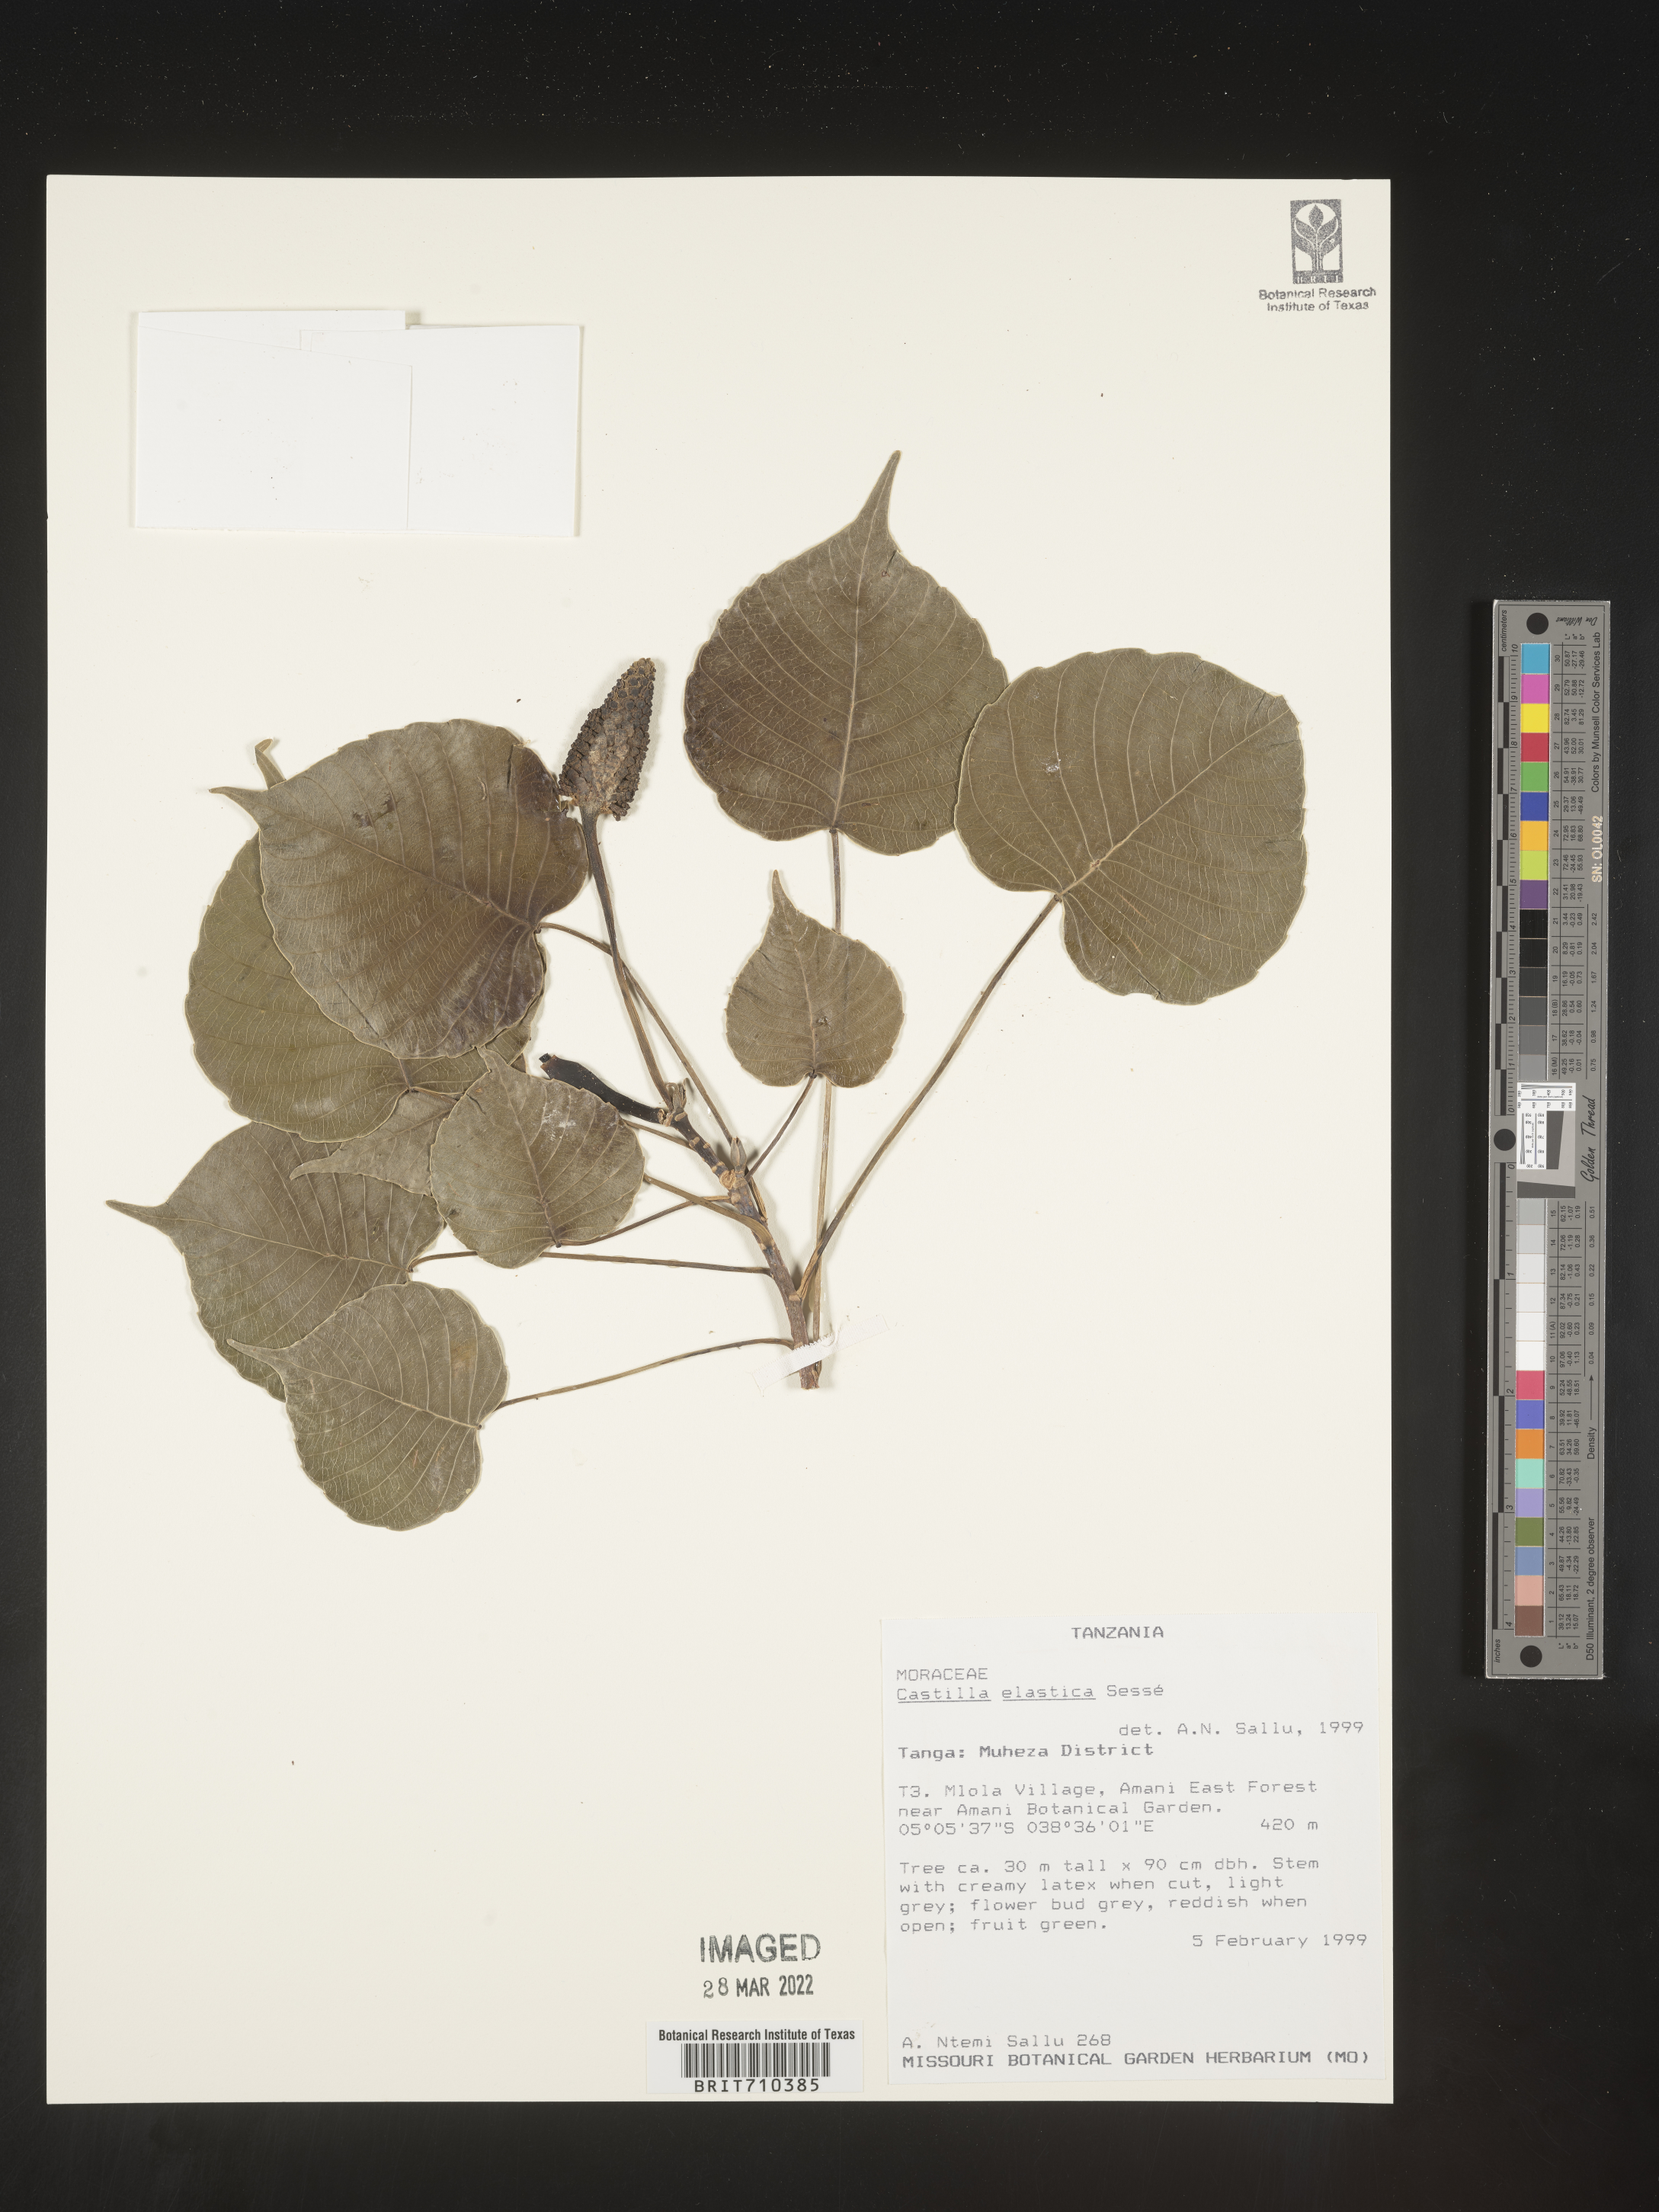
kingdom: Plantae
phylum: Tracheophyta
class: Magnoliopsida
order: Rosales
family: Moraceae
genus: Castilla
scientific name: Castilla
